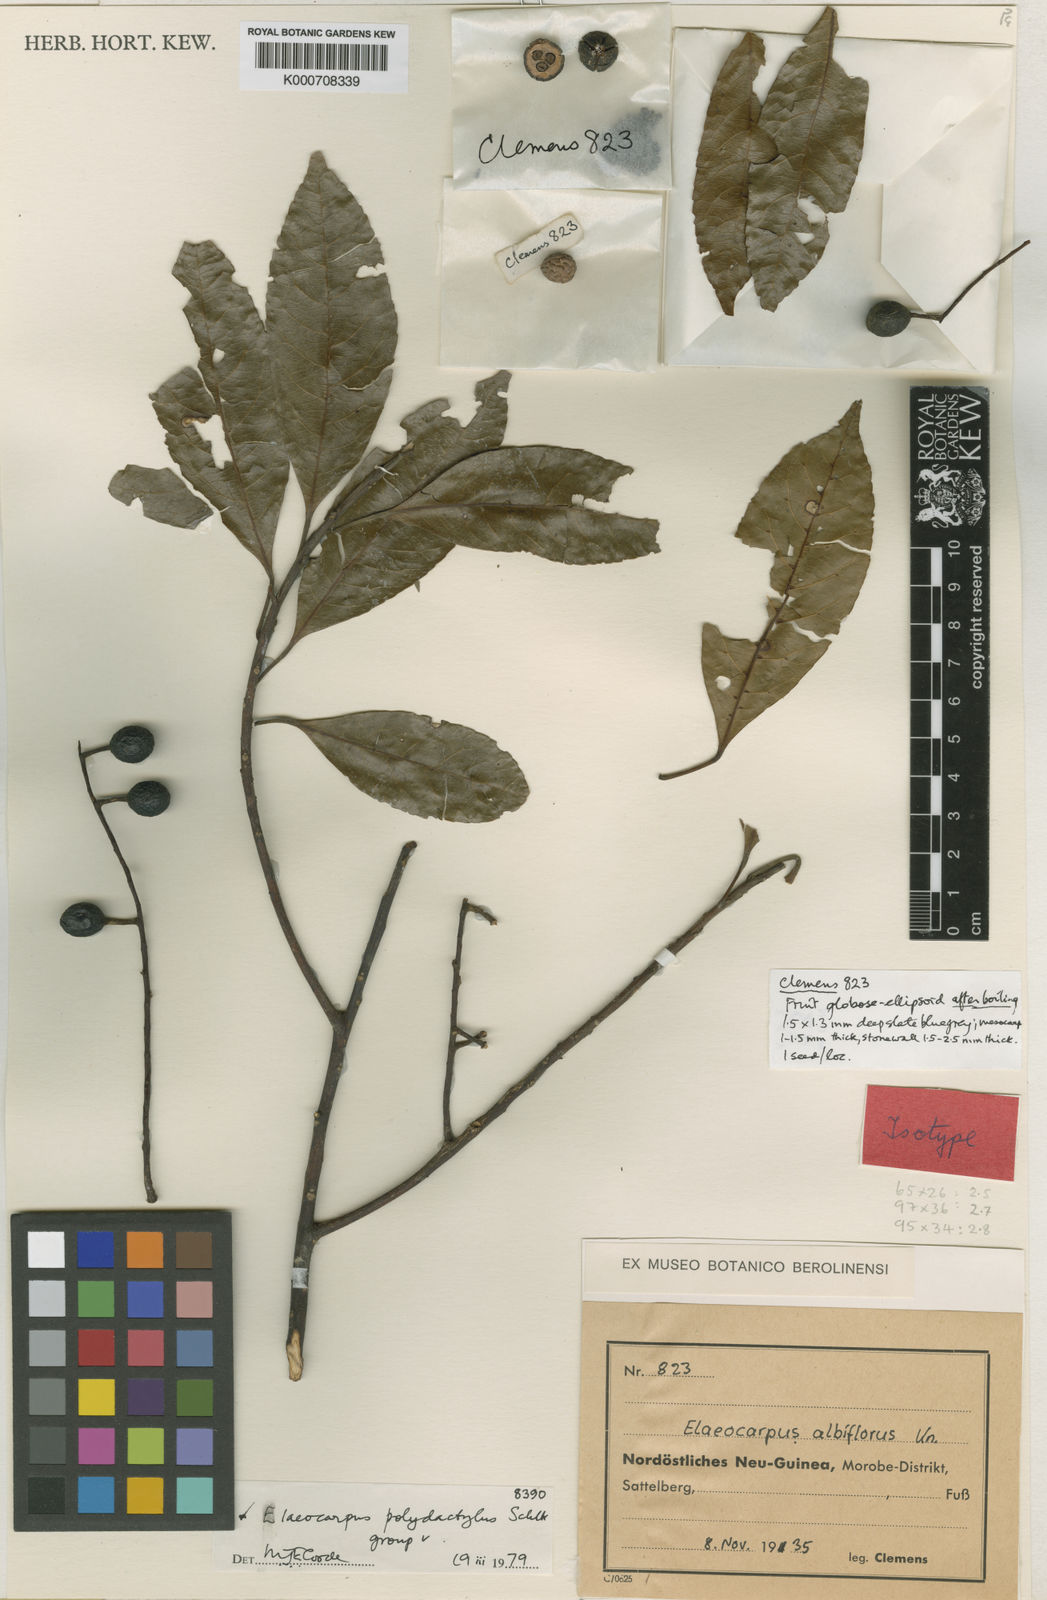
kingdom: Plantae
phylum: Tracheophyta
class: Magnoliopsida
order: Oxalidales
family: Elaeocarpaceae
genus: Elaeocarpus
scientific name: Elaeocarpus polydactylus
